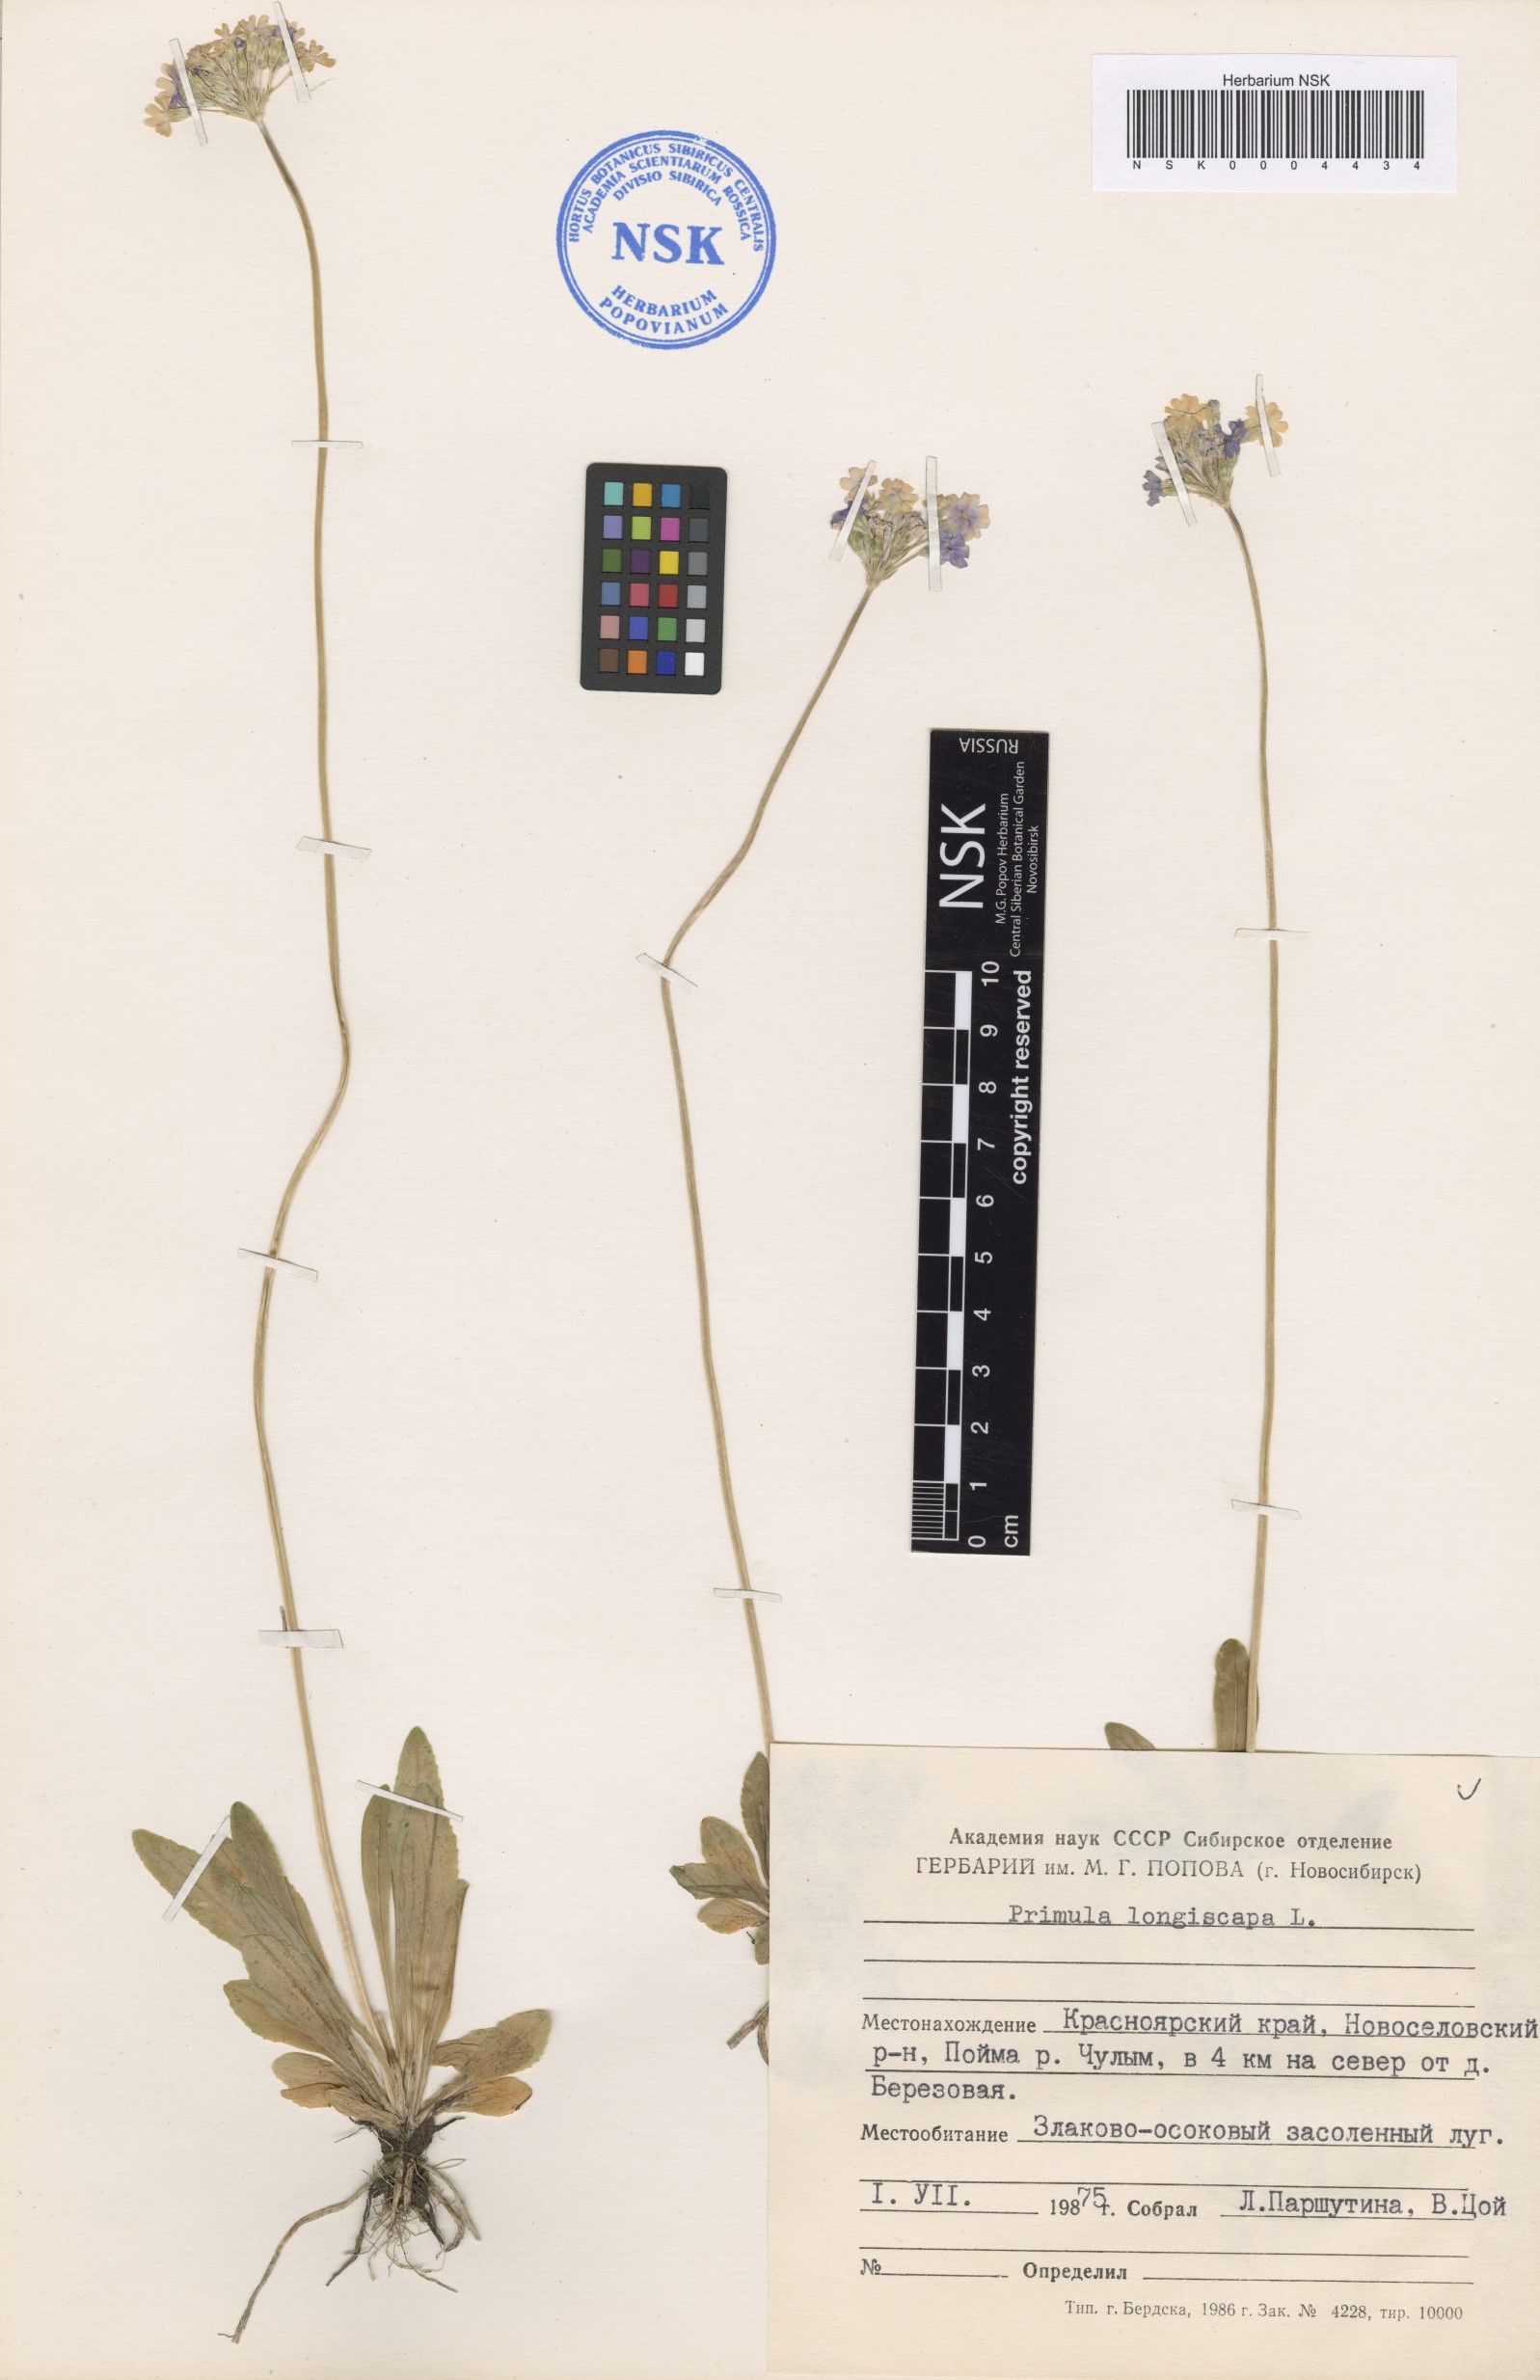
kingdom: Plantae
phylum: Tracheophyta
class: Magnoliopsida
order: Ericales
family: Primulaceae
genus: Primula
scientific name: Primula longiscapa
